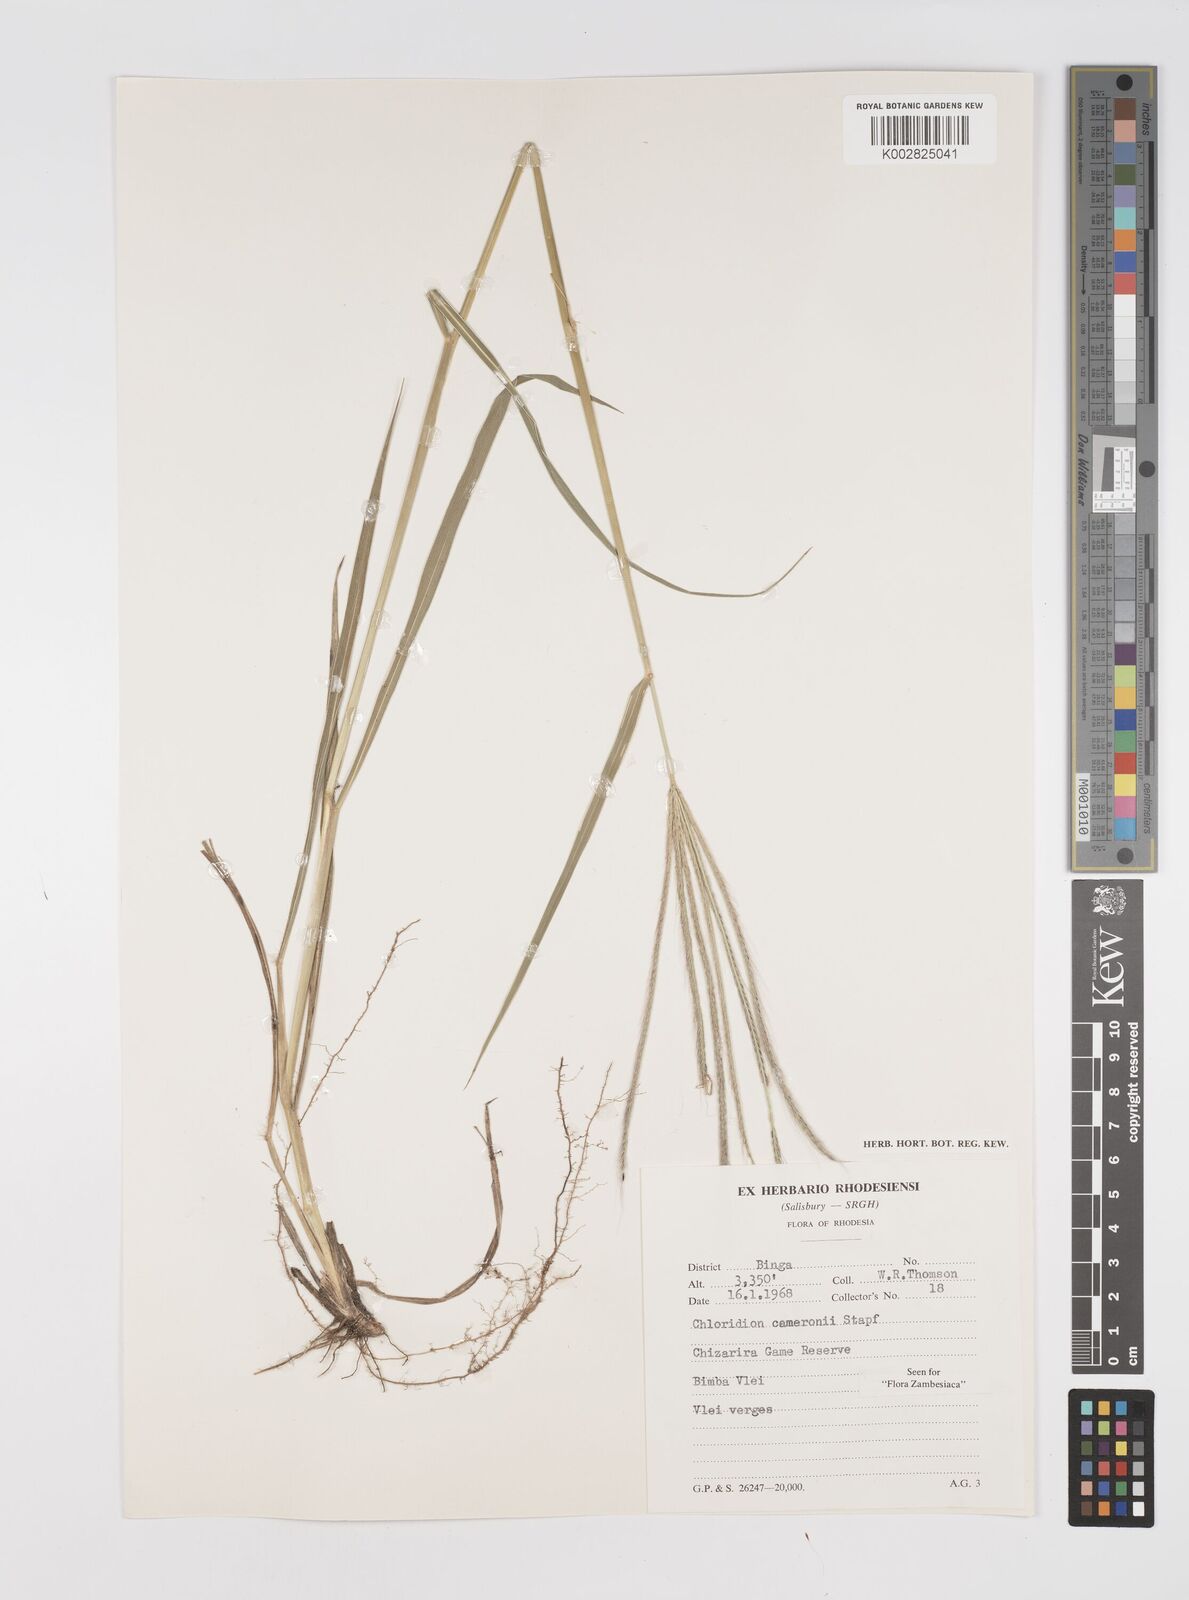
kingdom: Plantae
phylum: Tracheophyta
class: Liliopsida
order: Poales
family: Poaceae
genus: Stereochlaena
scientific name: Stereochlaena cameronii
